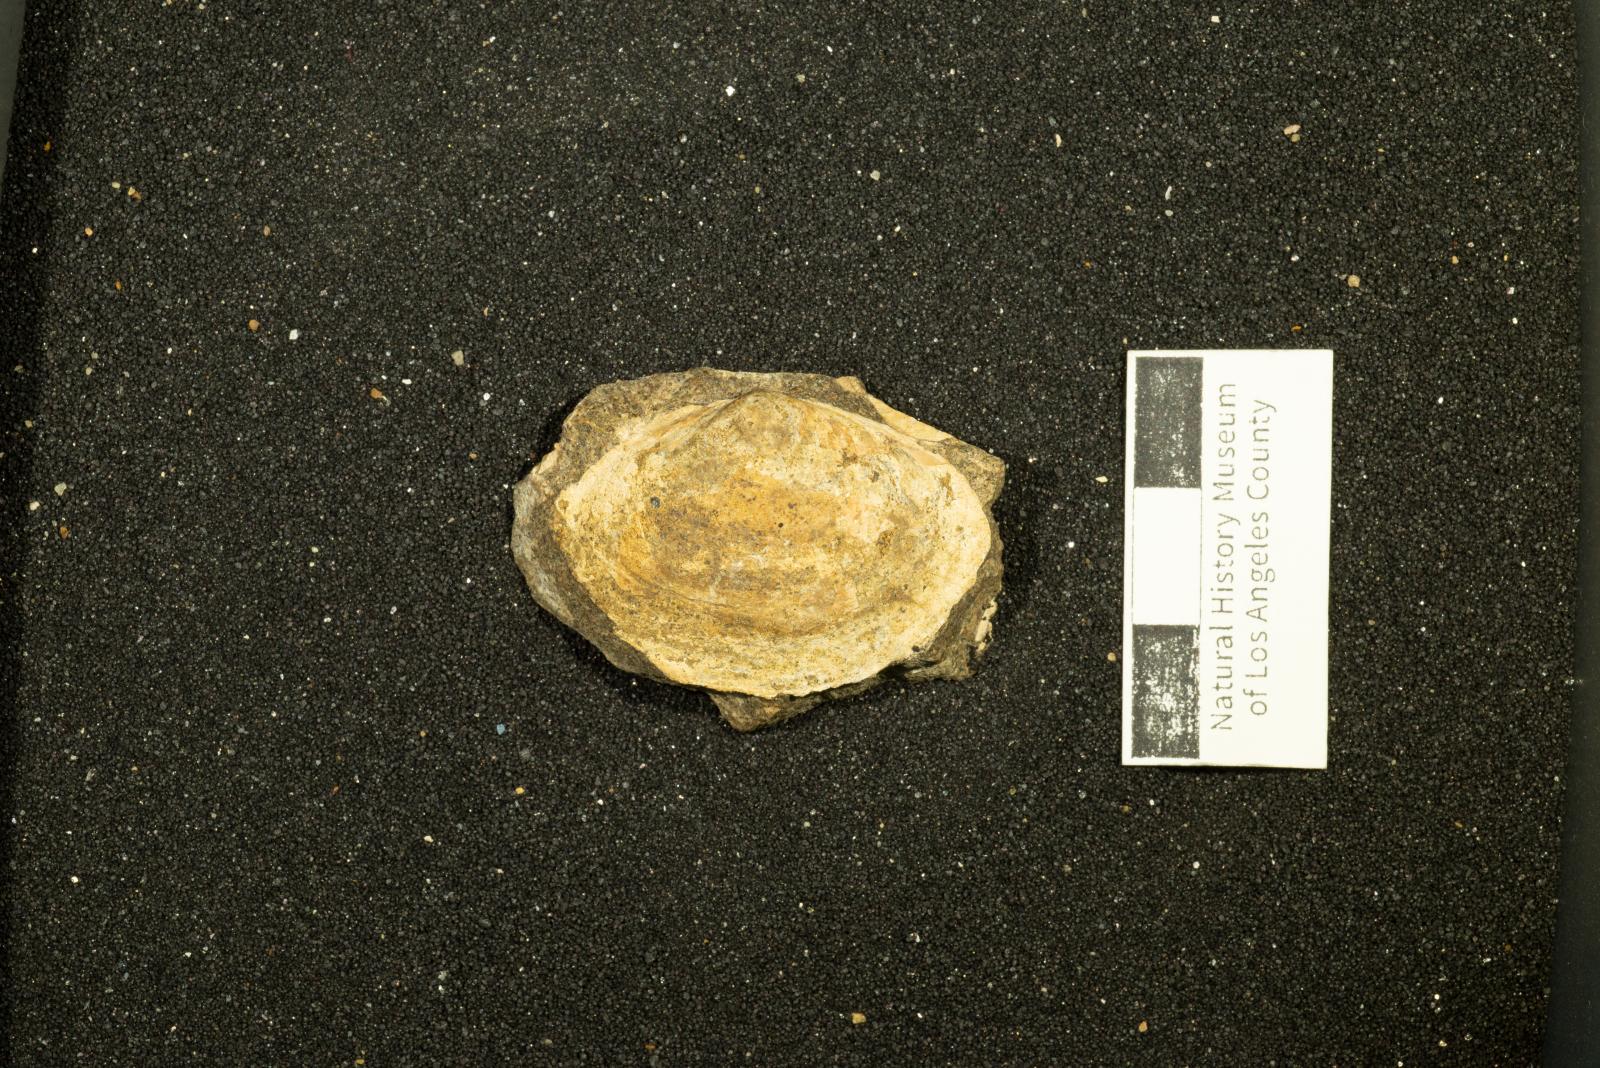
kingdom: Animalia
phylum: Mollusca
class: Bivalvia
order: Venerida
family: Mactridae
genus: Pteroluter
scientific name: Pteroluter othnius
